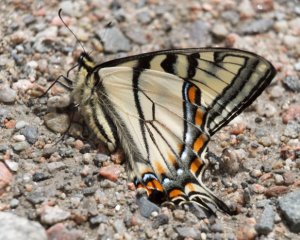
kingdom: Animalia
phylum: Arthropoda
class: Insecta
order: Lepidoptera
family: Papilionidae
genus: Pterourus
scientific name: Pterourus canadensis
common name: Canadian Tiger Swallowtail
